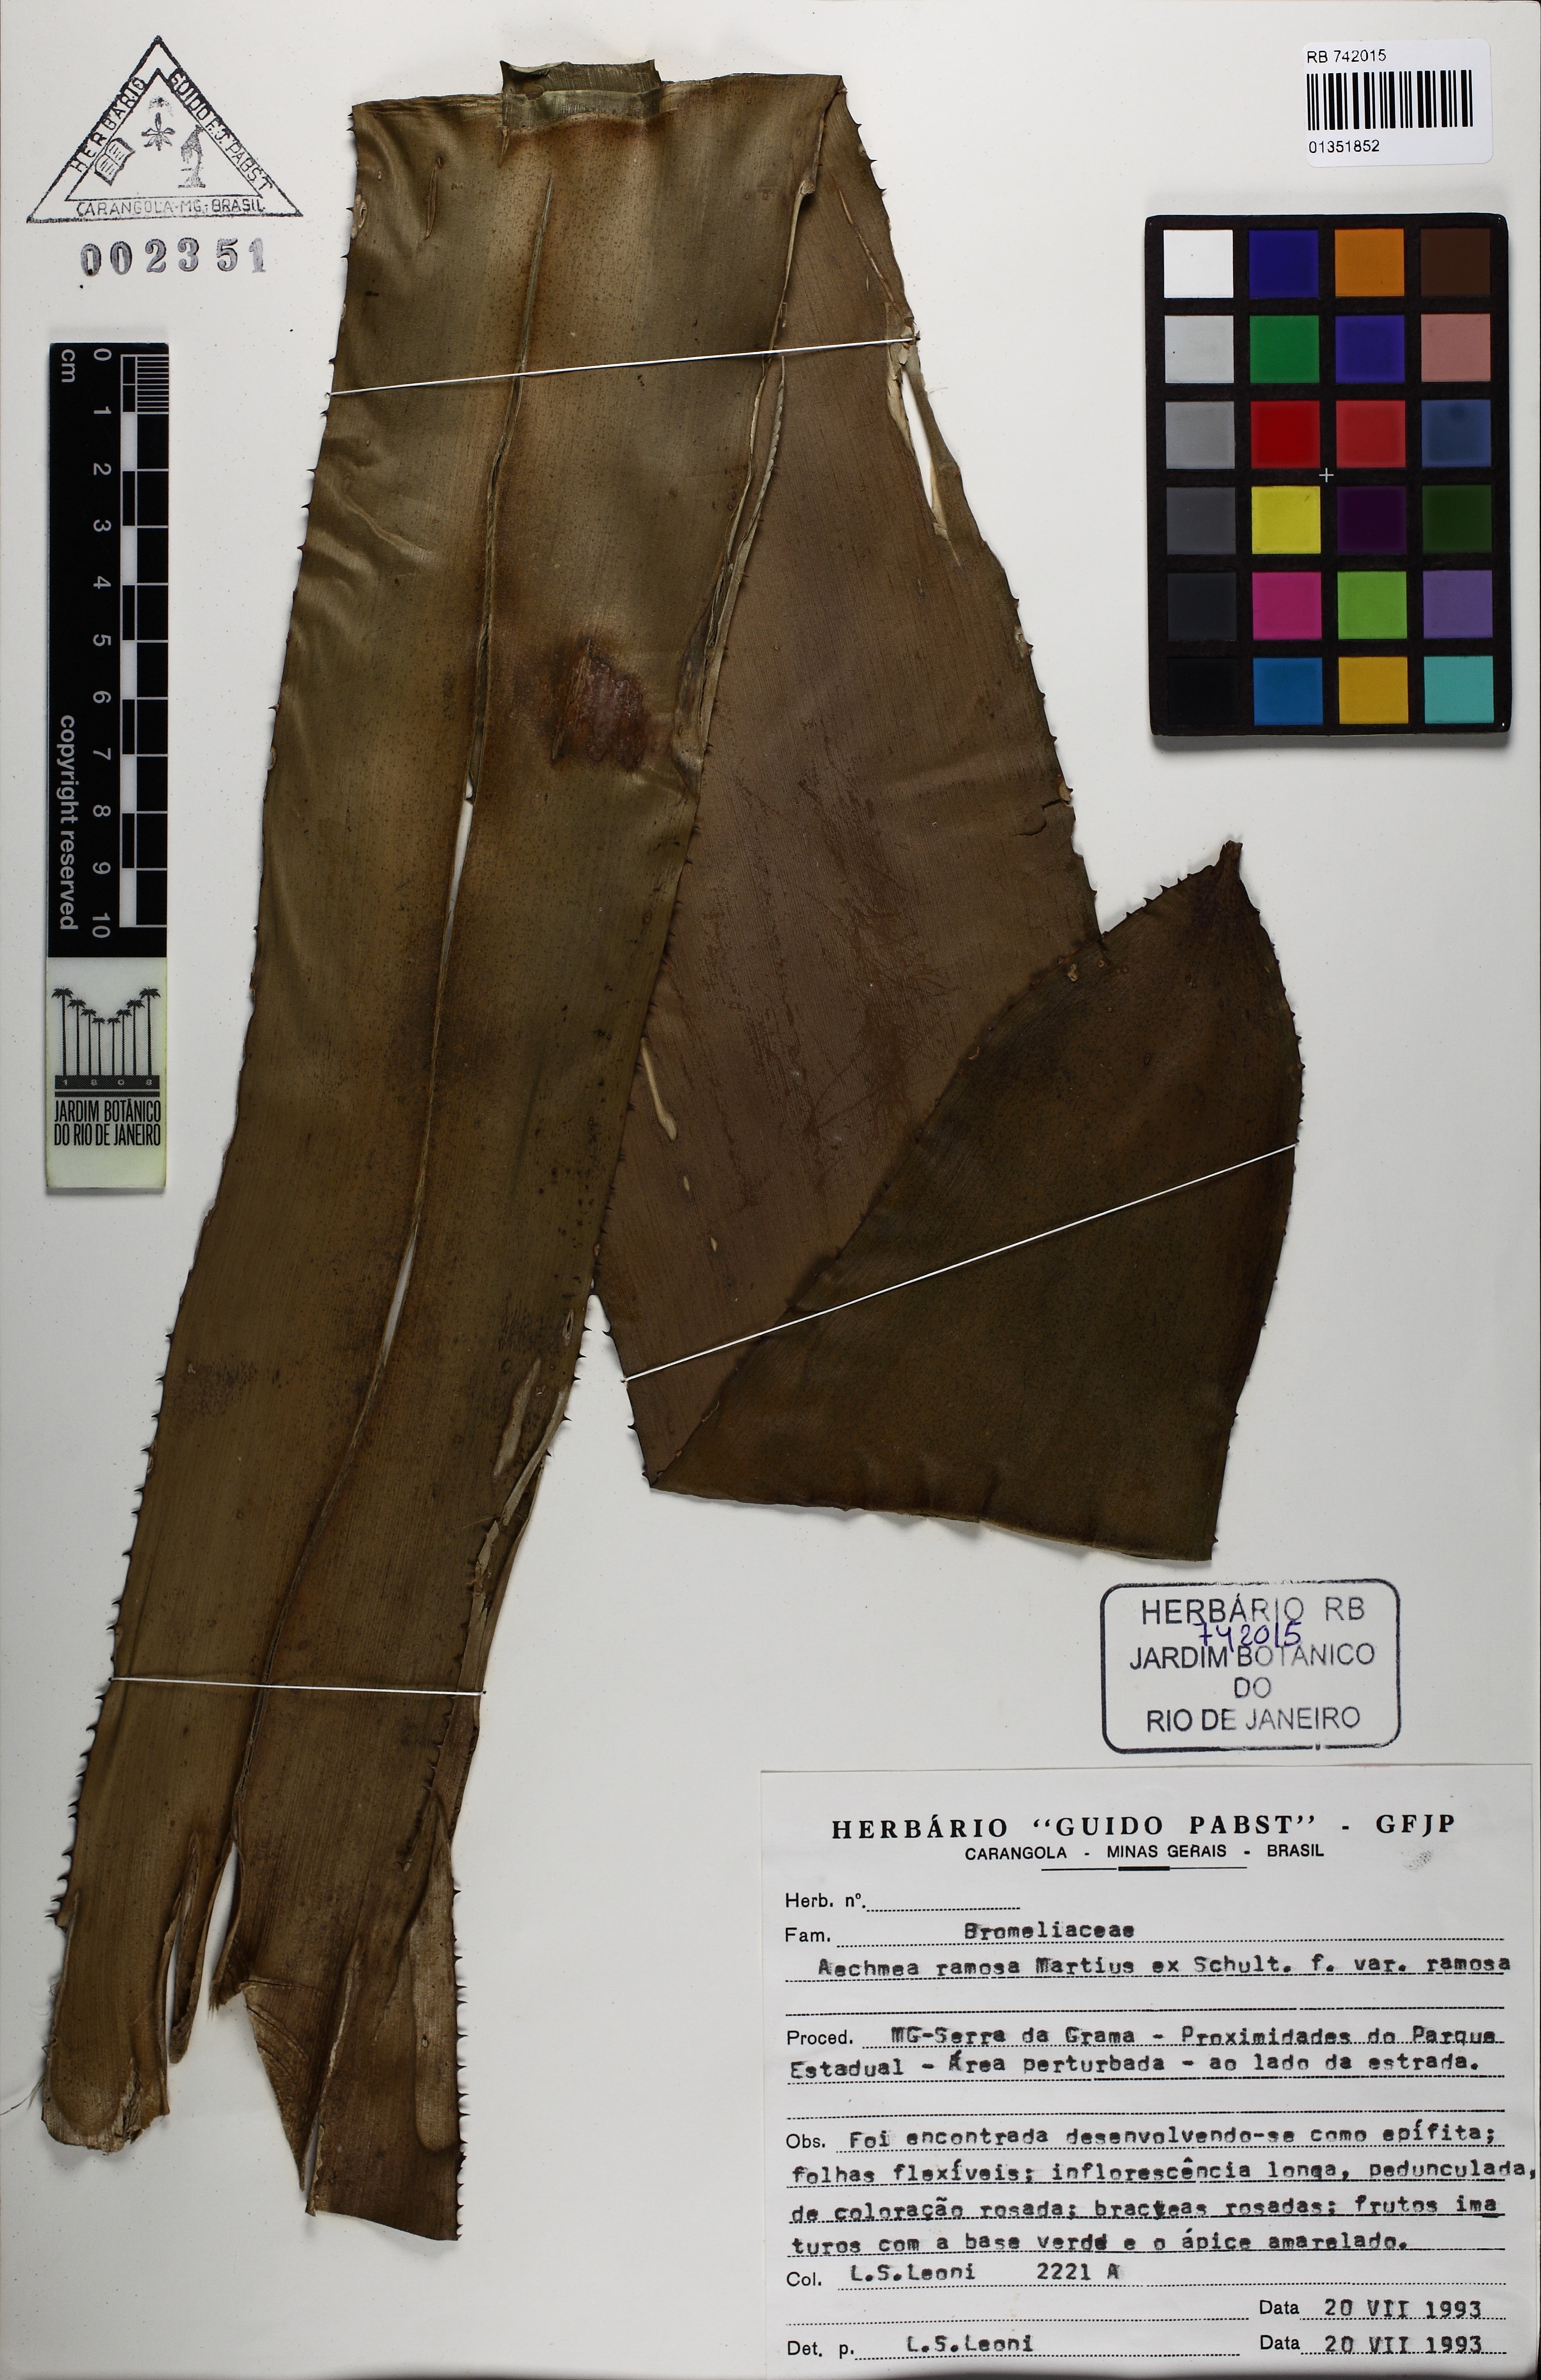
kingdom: Plantae
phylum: Tracheophyta
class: Liliopsida
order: Poales
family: Bromeliaceae
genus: Aechmea
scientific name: Aechmea ramosa
